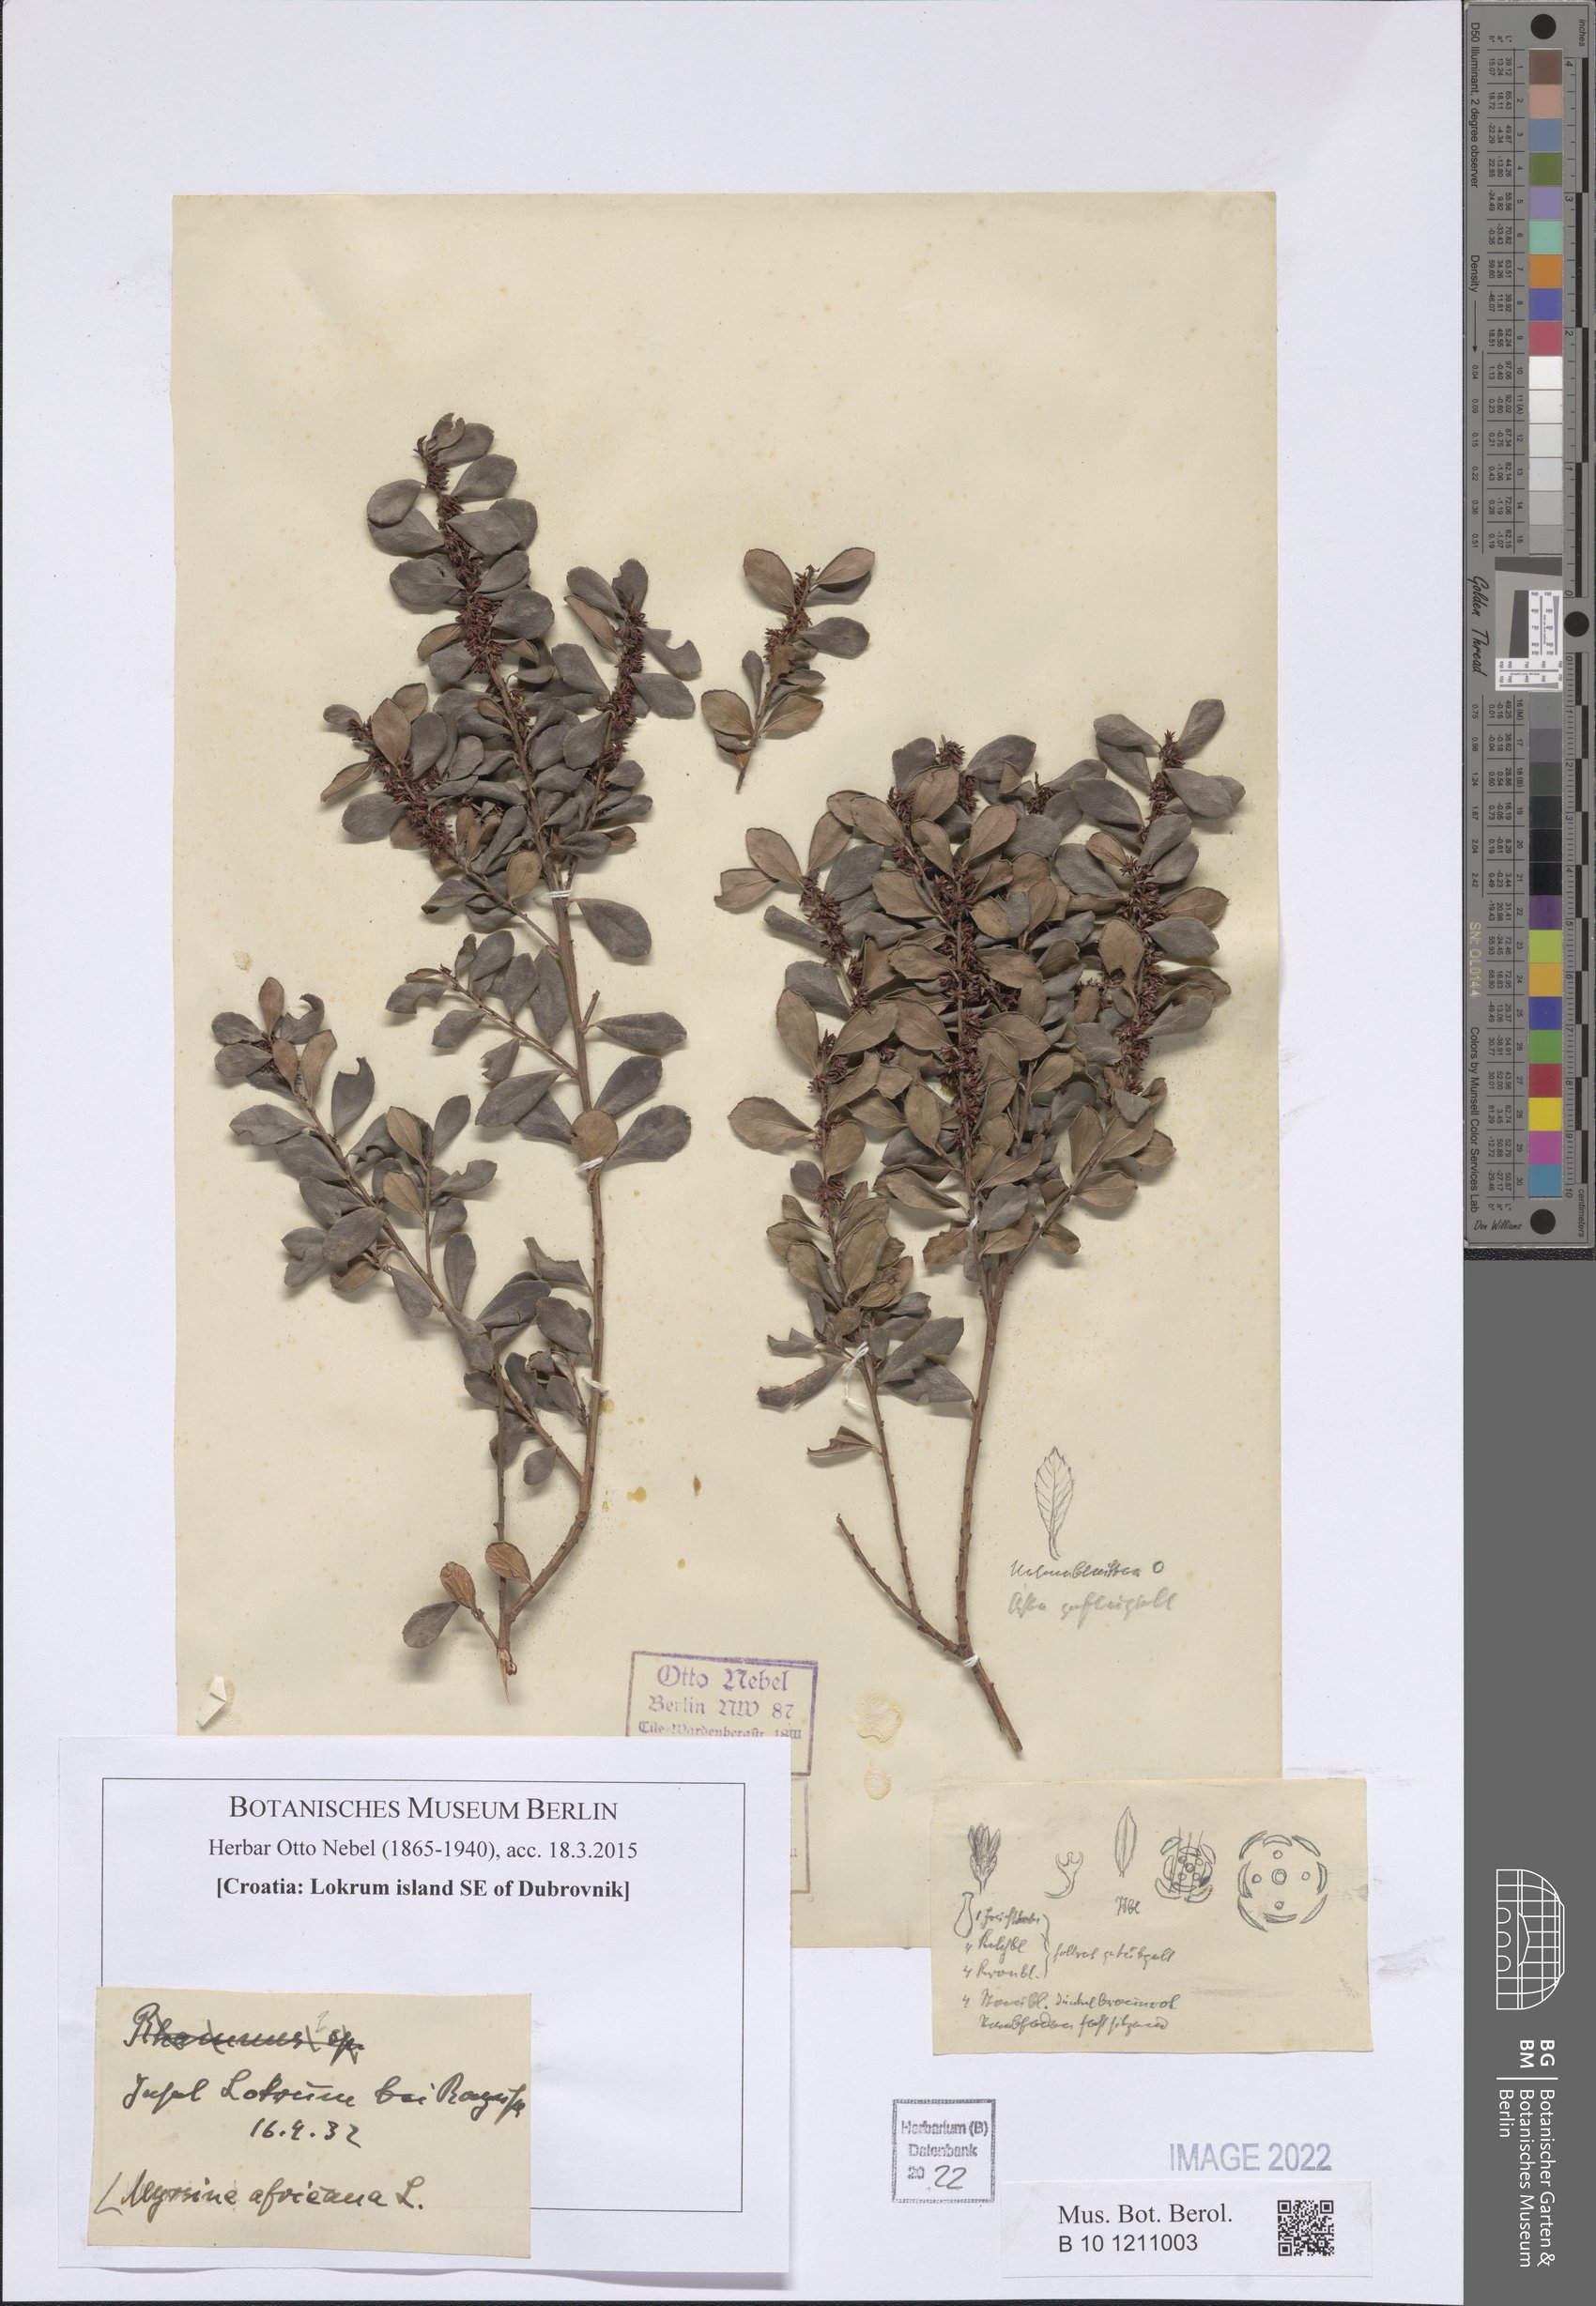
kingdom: Plantae
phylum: Tracheophyta
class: Magnoliopsida
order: Ericales
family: Primulaceae
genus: Myrsine
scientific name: Myrsine africana
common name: African-boxwood
